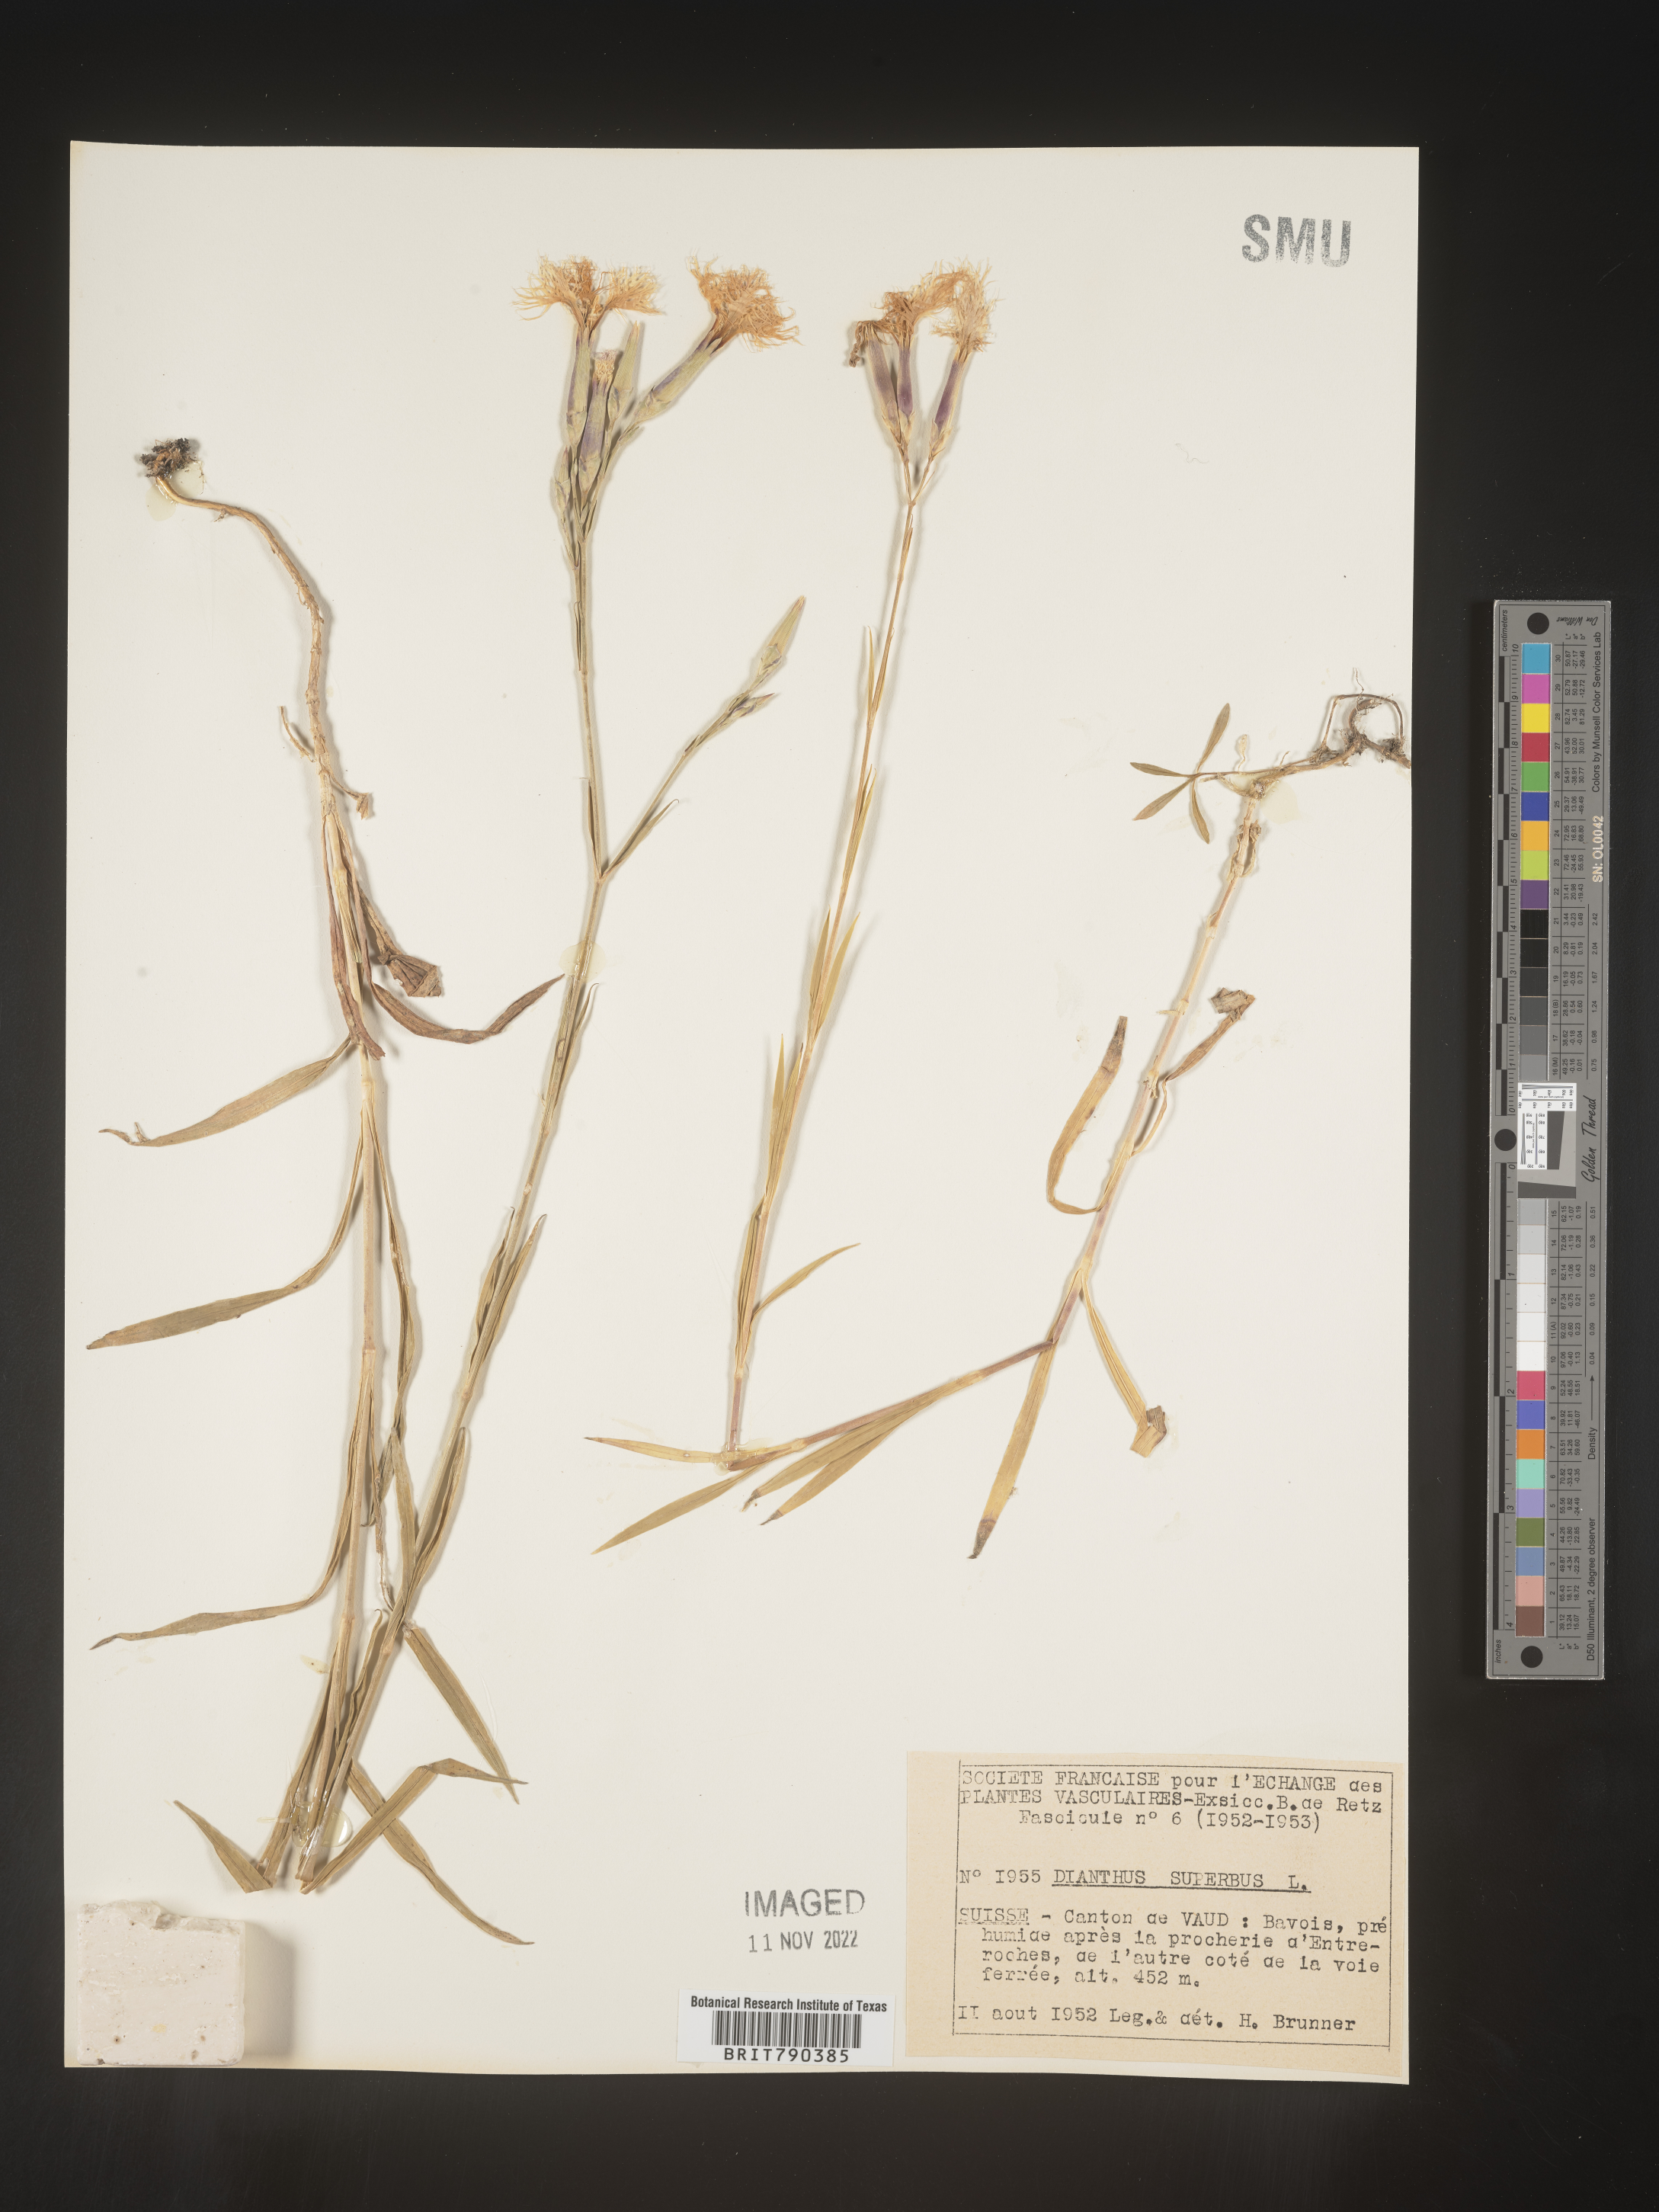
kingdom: Plantae
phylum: Tracheophyta
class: Magnoliopsida
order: Caryophyllales
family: Caryophyllaceae
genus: Dianthus
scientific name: Dianthus superbus
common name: Fringed pink
